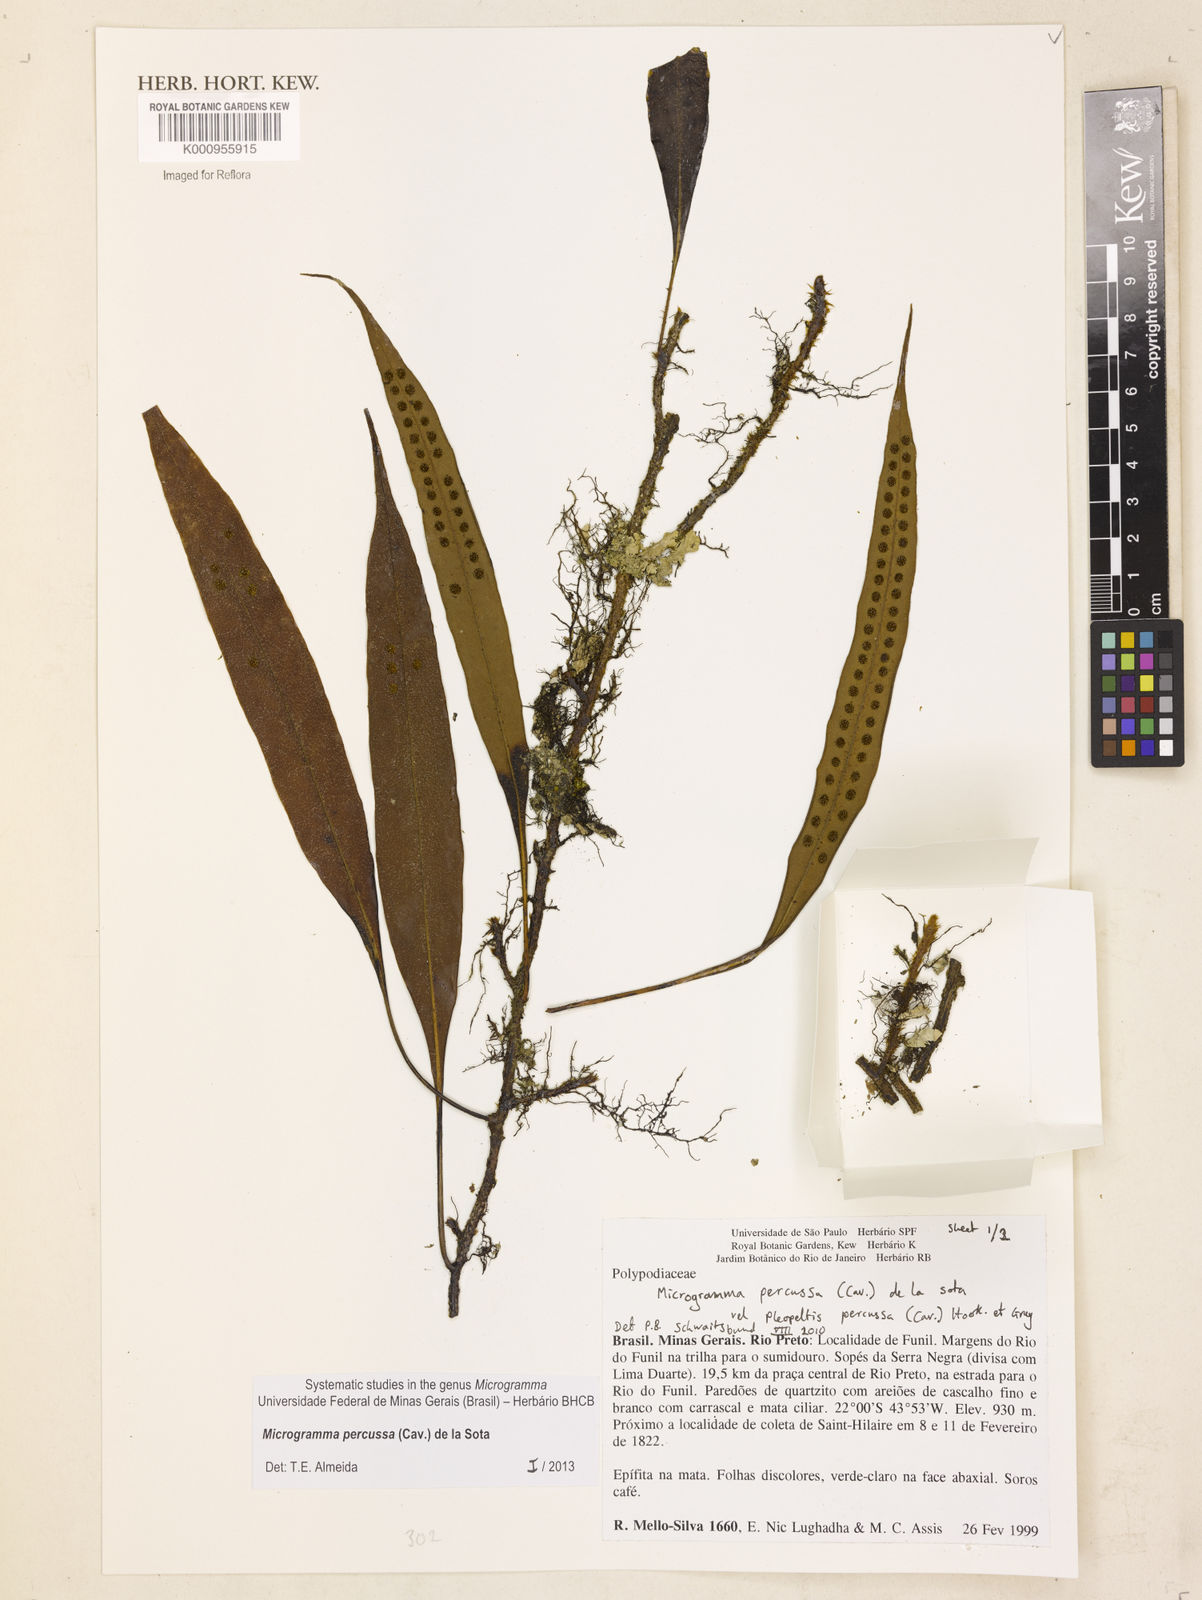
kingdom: Plantae
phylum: Tracheophyta
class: Polypodiopsida
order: Polypodiales
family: Polypodiaceae
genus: Microgramma
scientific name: Microgramma percussa
